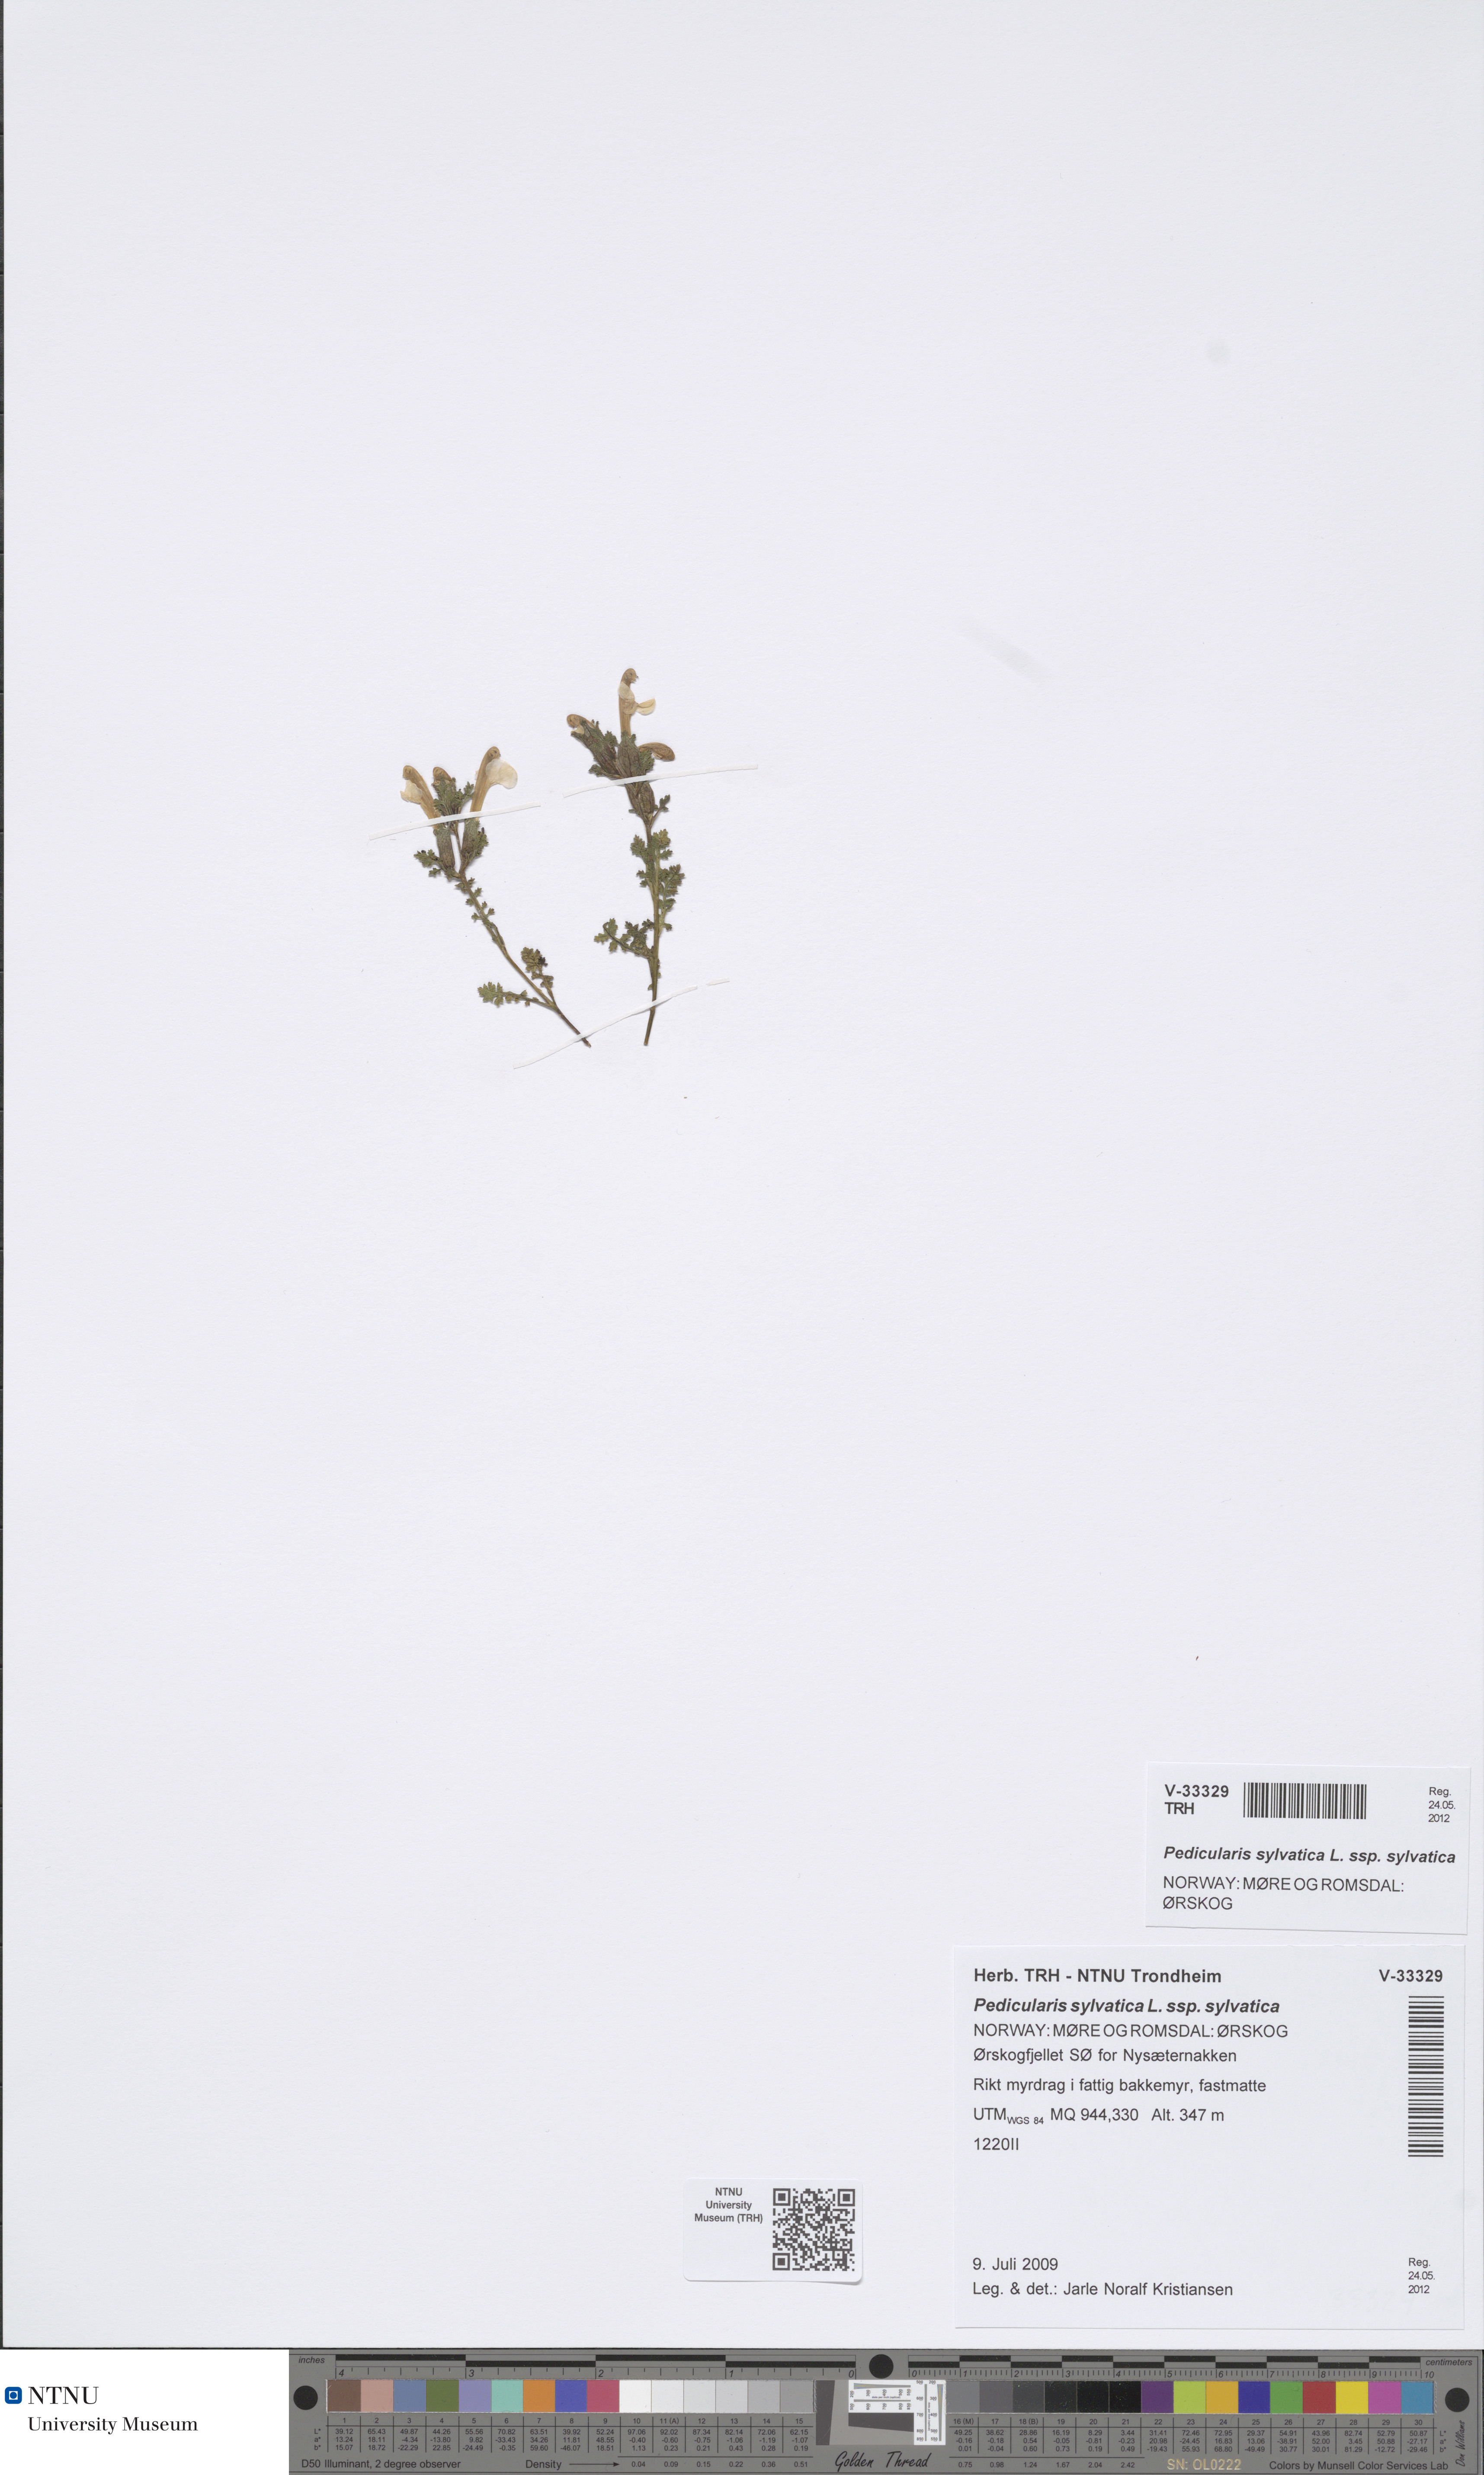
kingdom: Plantae
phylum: Tracheophyta
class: Magnoliopsida
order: Lamiales
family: Orobanchaceae
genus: Pedicularis
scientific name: Pedicularis sylvatica
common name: Lousewort
